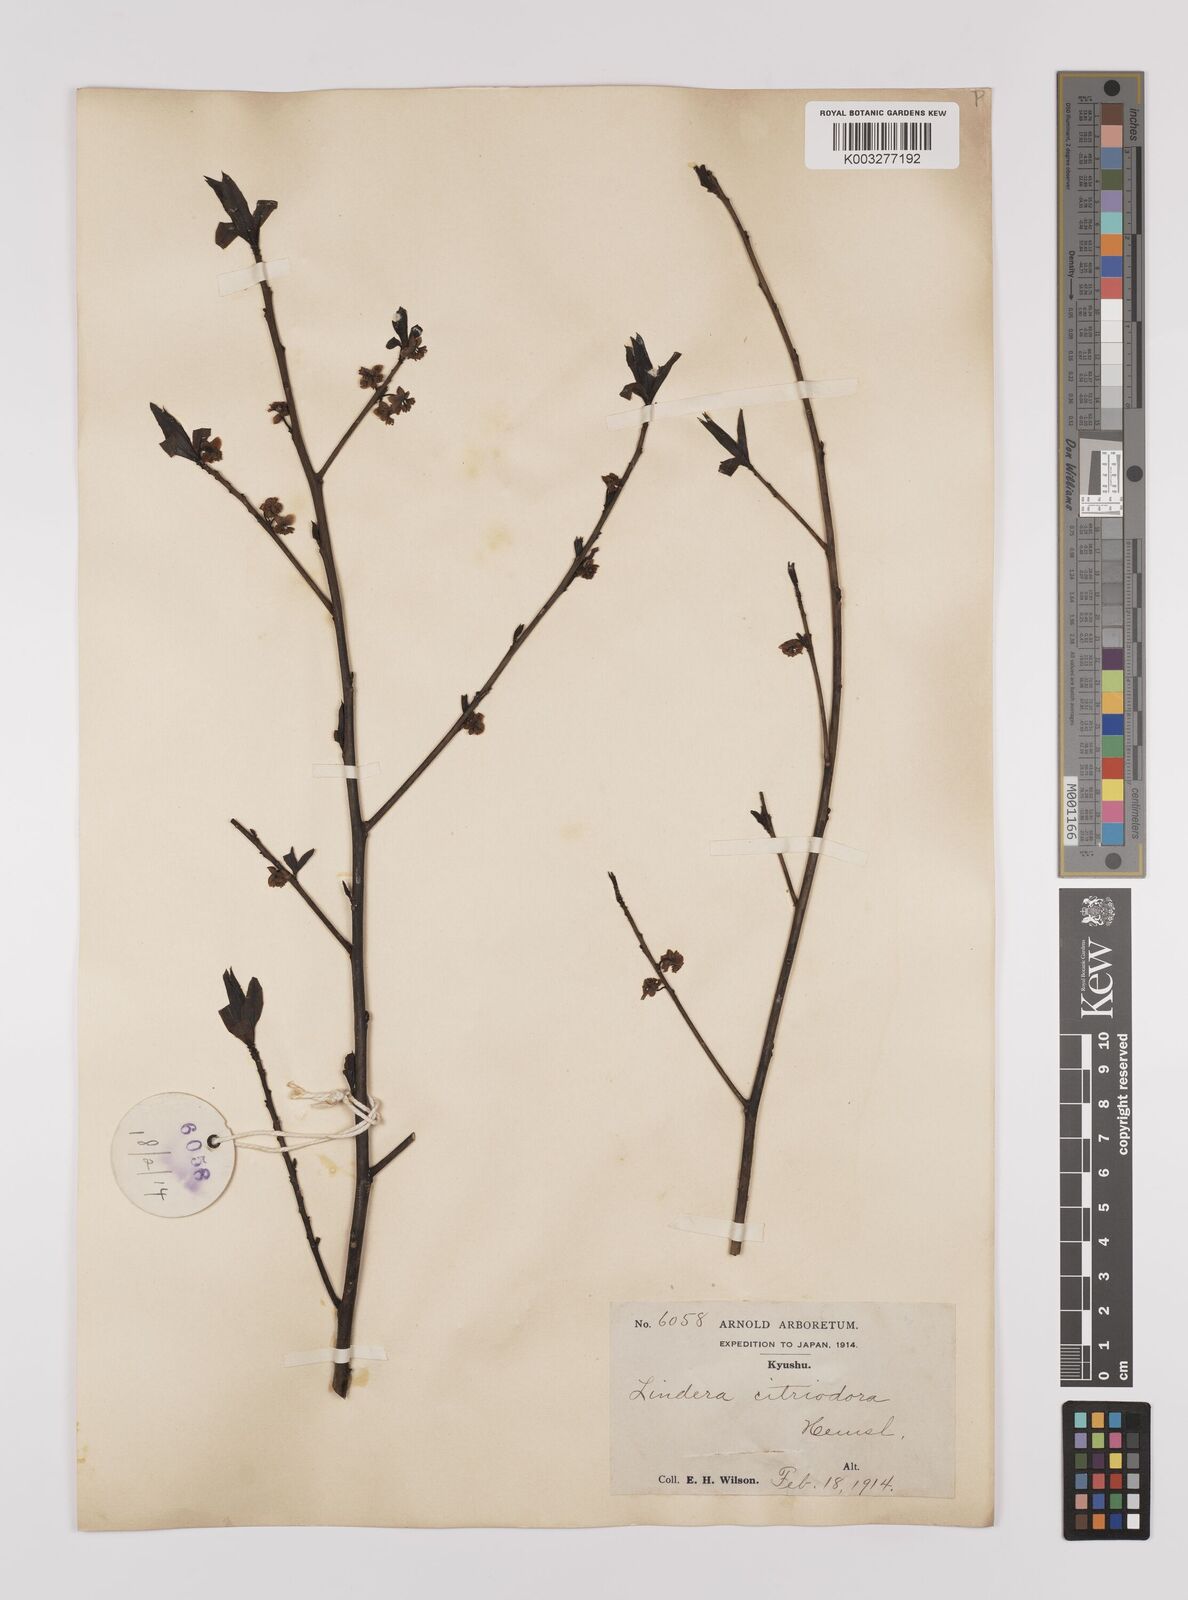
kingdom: Plantae
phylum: Tracheophyta
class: Magnoliopsida
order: Laurales
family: Lauraceae
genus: Lindera
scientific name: Lindera citriodora
